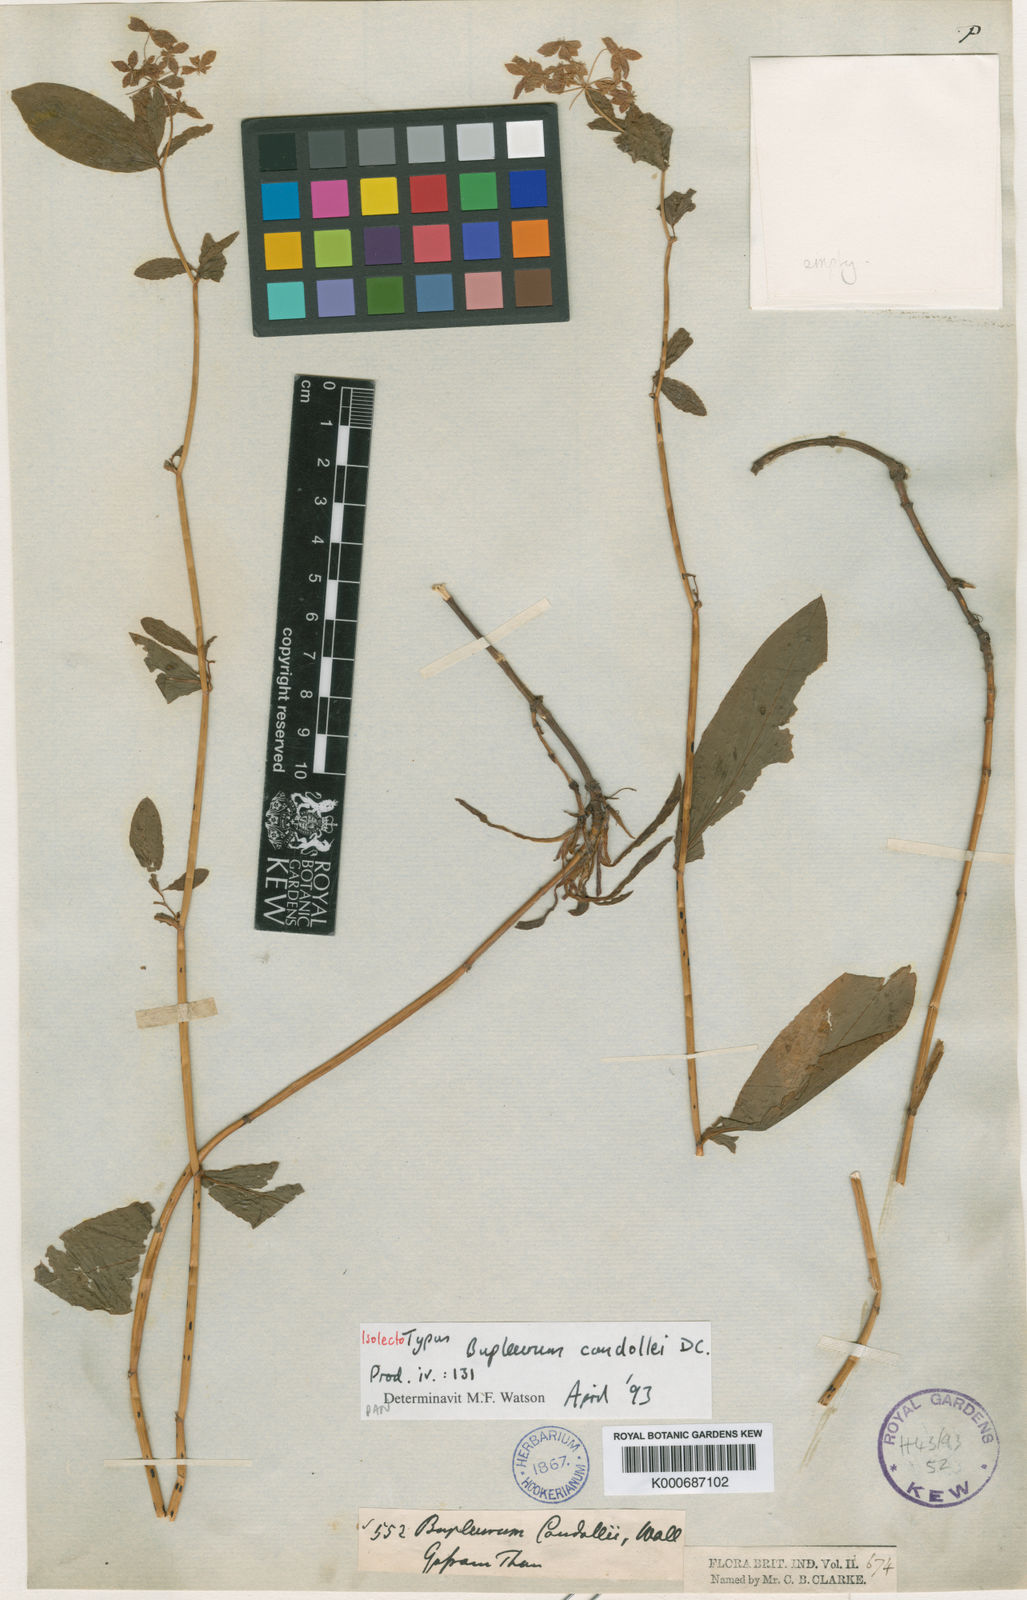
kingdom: Plantae
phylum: Tracheophyta
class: Magnoliopsida
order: Apiales
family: Apiaceae
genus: Bupleurum
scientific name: Bupleurum candollei
